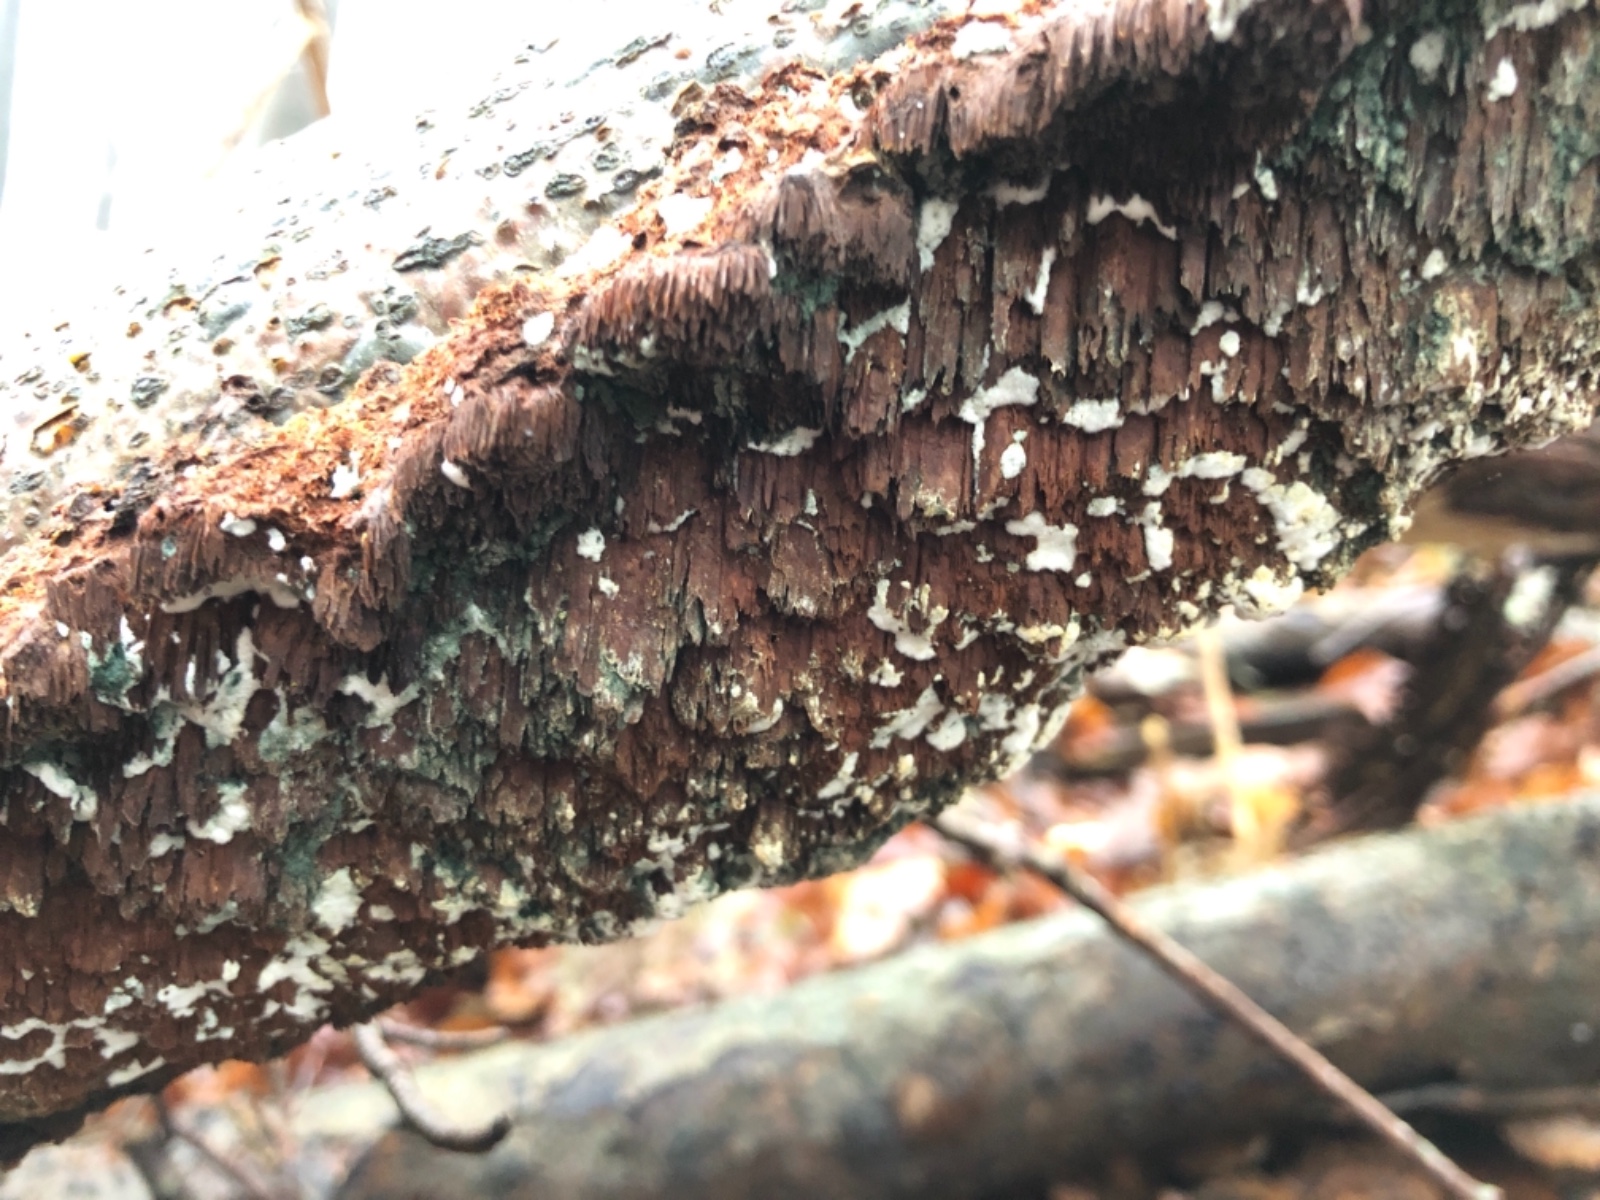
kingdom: Fungi
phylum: Basidiomycota
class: Agaricomycetes
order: Hymenochaetales
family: Hymenochaetaceae
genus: Mensularia
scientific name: Mensularia nodulosa
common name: bøge-spejlporesvamp
